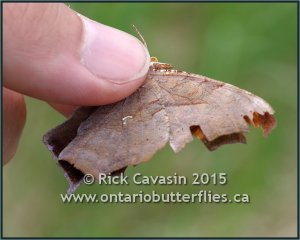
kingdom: Animalia
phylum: Arthropoda
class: Insecta
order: Lepidoptera
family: Nymphalidae
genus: Polygonia
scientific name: Polygonia interrogationis
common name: Question Mark
